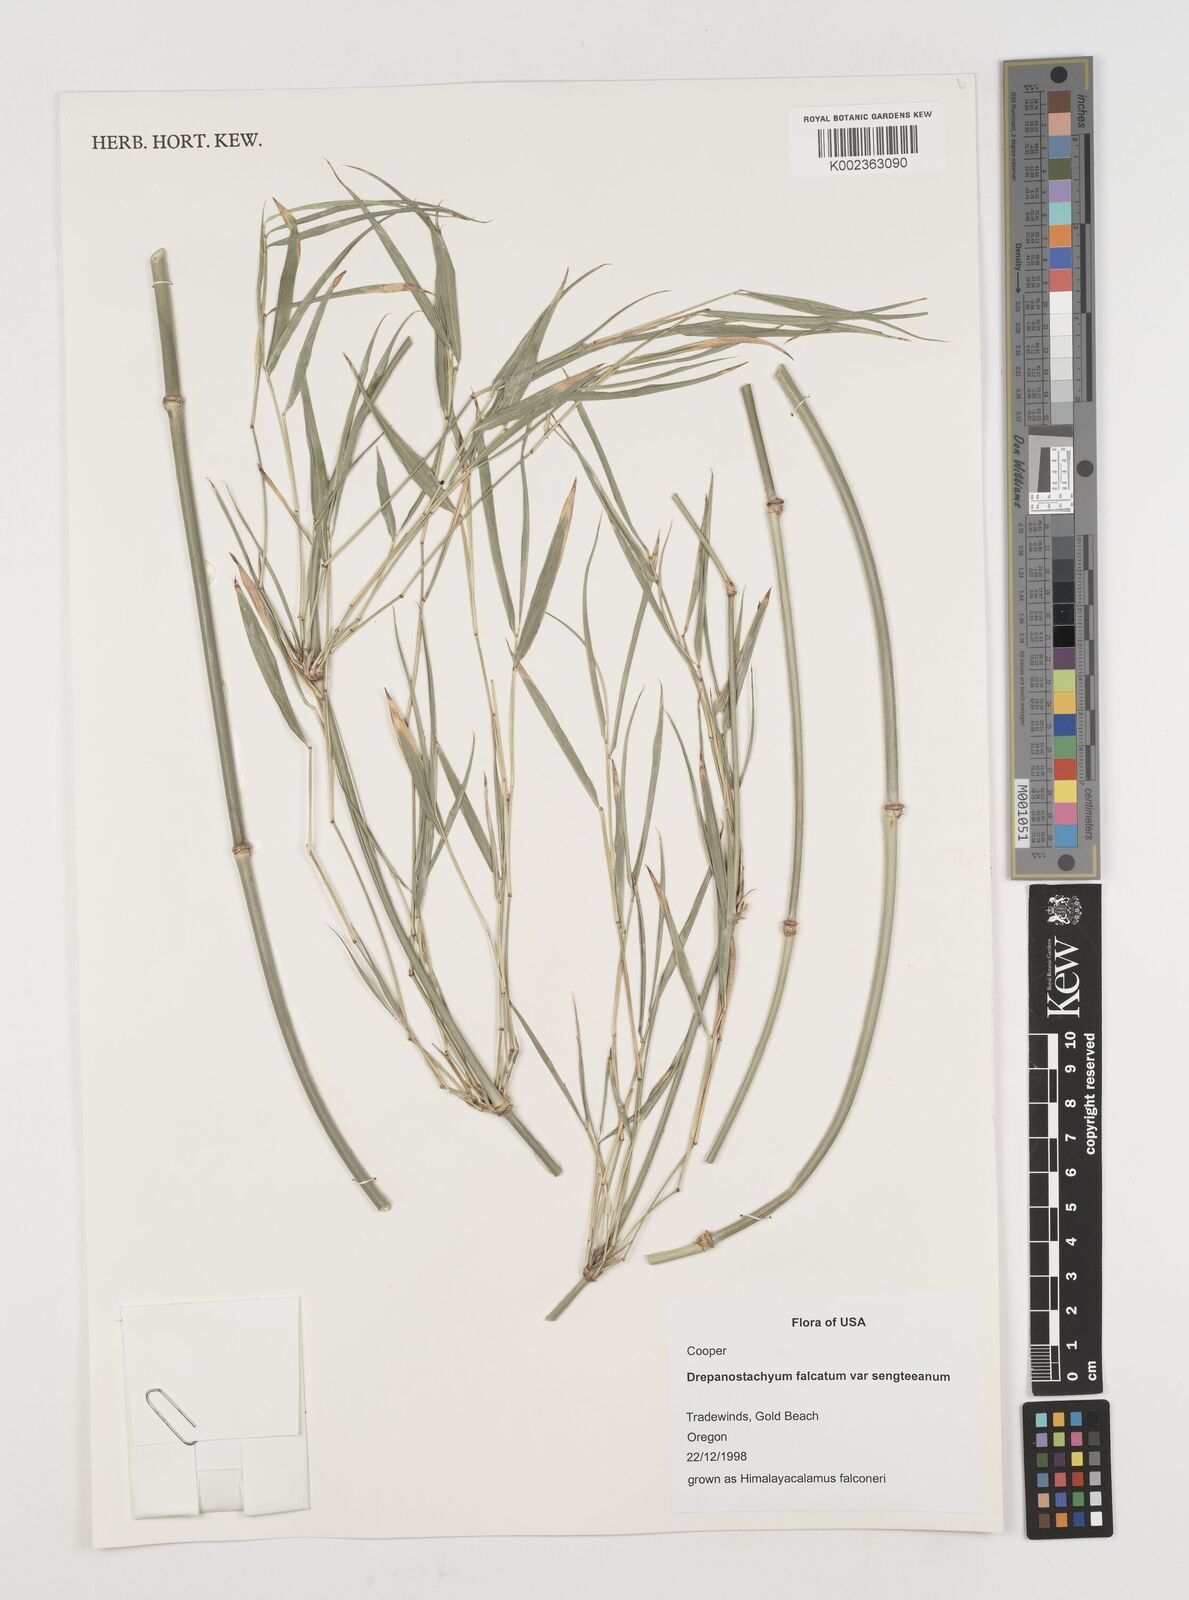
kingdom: Plantae
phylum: Tracheophyta
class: Liliopsida
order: Poales
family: Poaceae
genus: Drepanostachyum
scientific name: Drepanostachyum falcatum
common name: Himalayan bamboo
